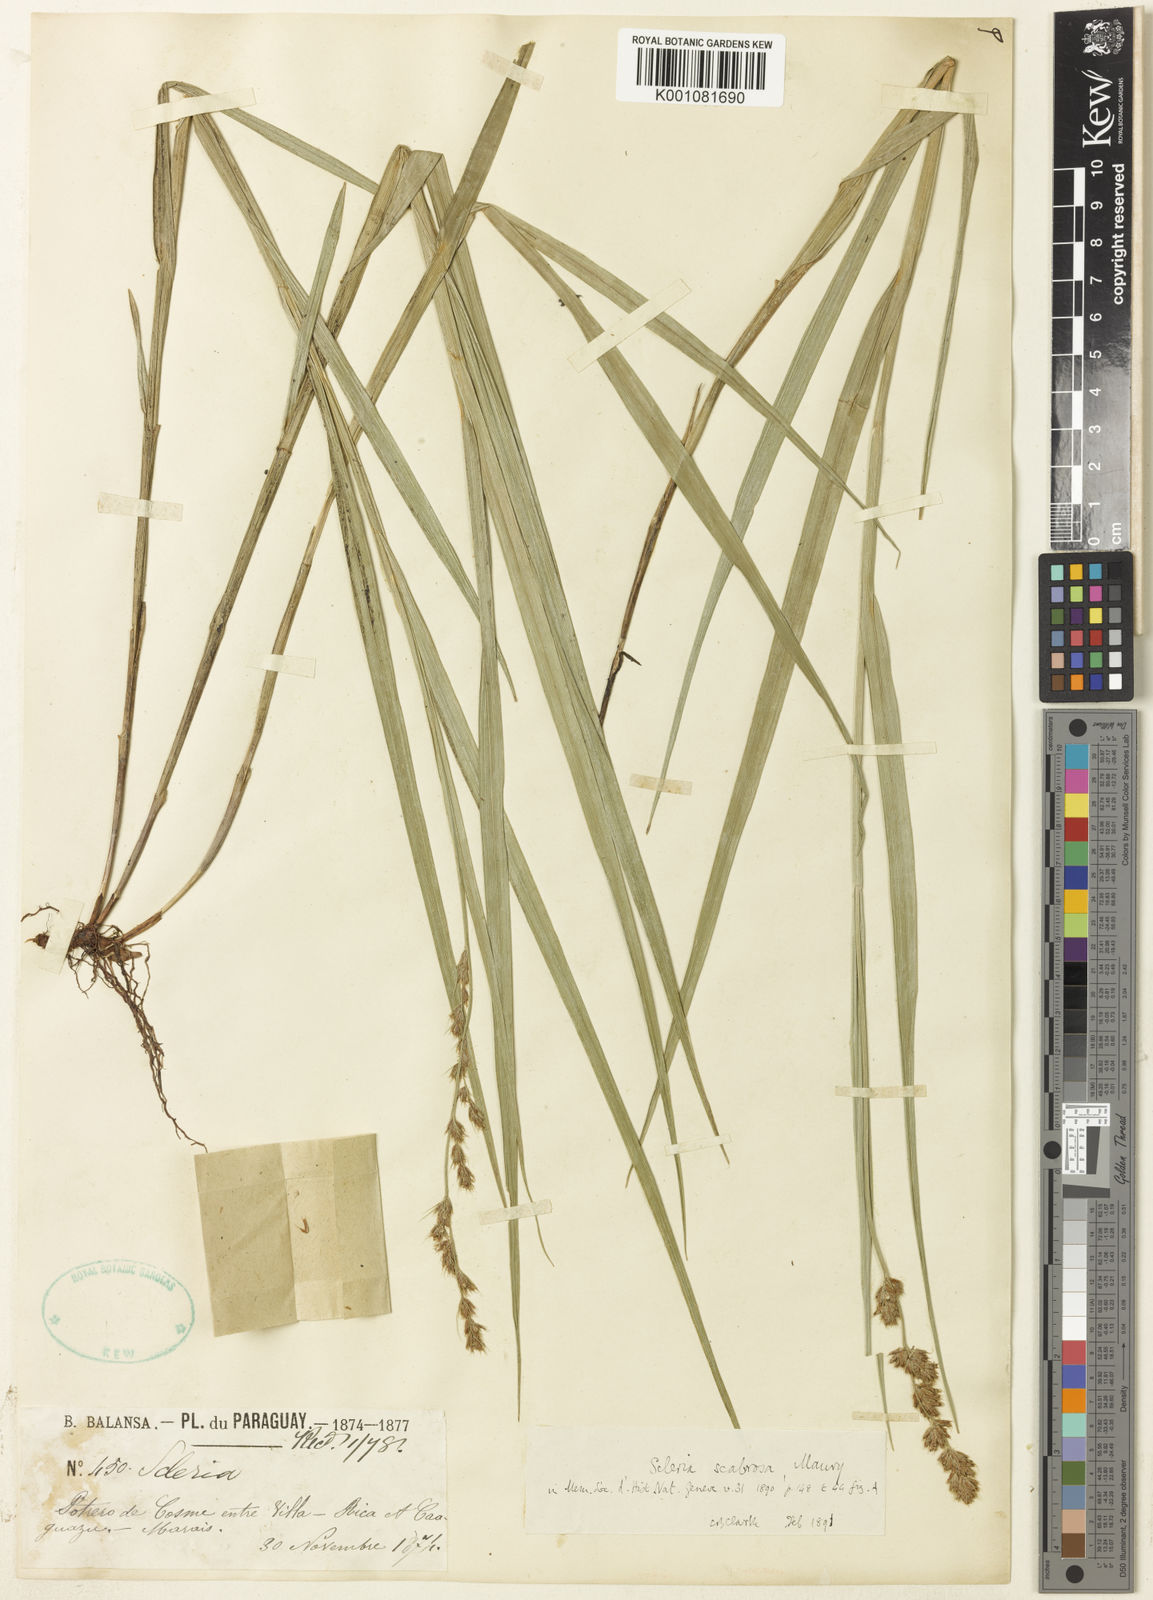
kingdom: Plantae
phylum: Tracheophyta
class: Liliopsida
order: Poales
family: Cyperaceae
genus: Scleria
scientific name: Scleria
